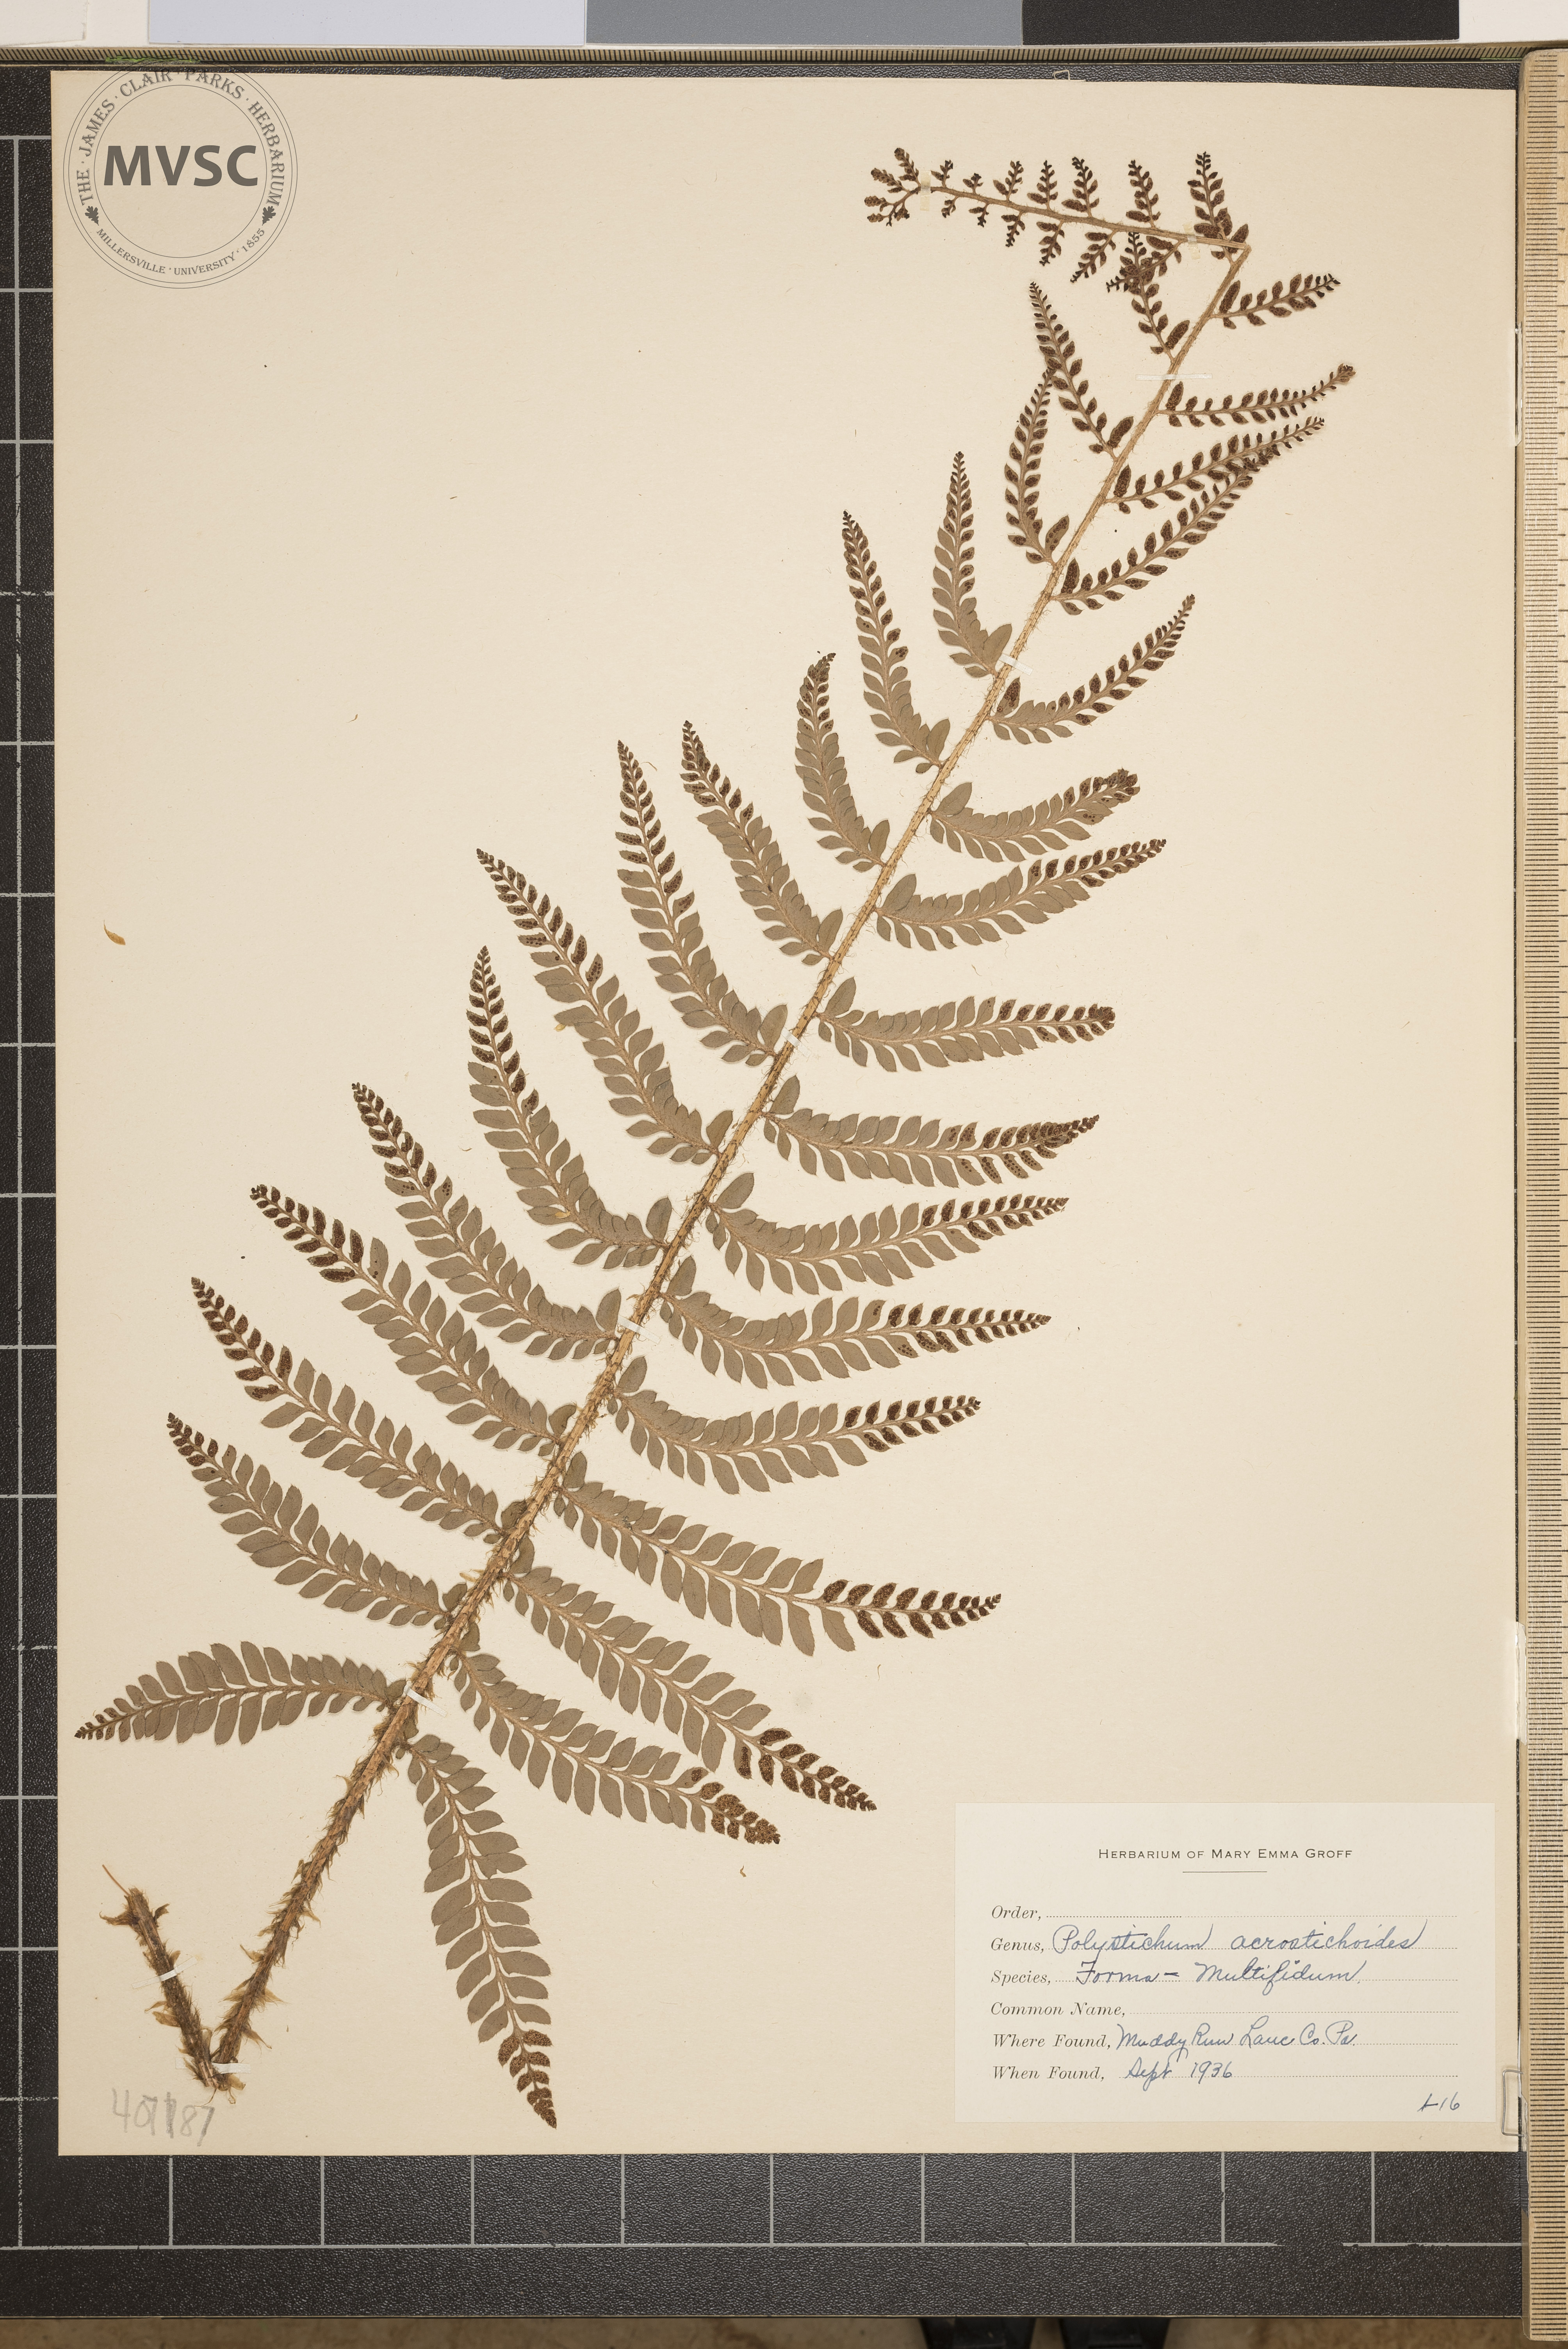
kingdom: Plantae
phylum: Tracheophyta
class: Polypodiopsida
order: Polypodiales
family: Dryopteridaceae
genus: Polystichum
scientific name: Polystichum acrostichoides
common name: Christmas Fern
